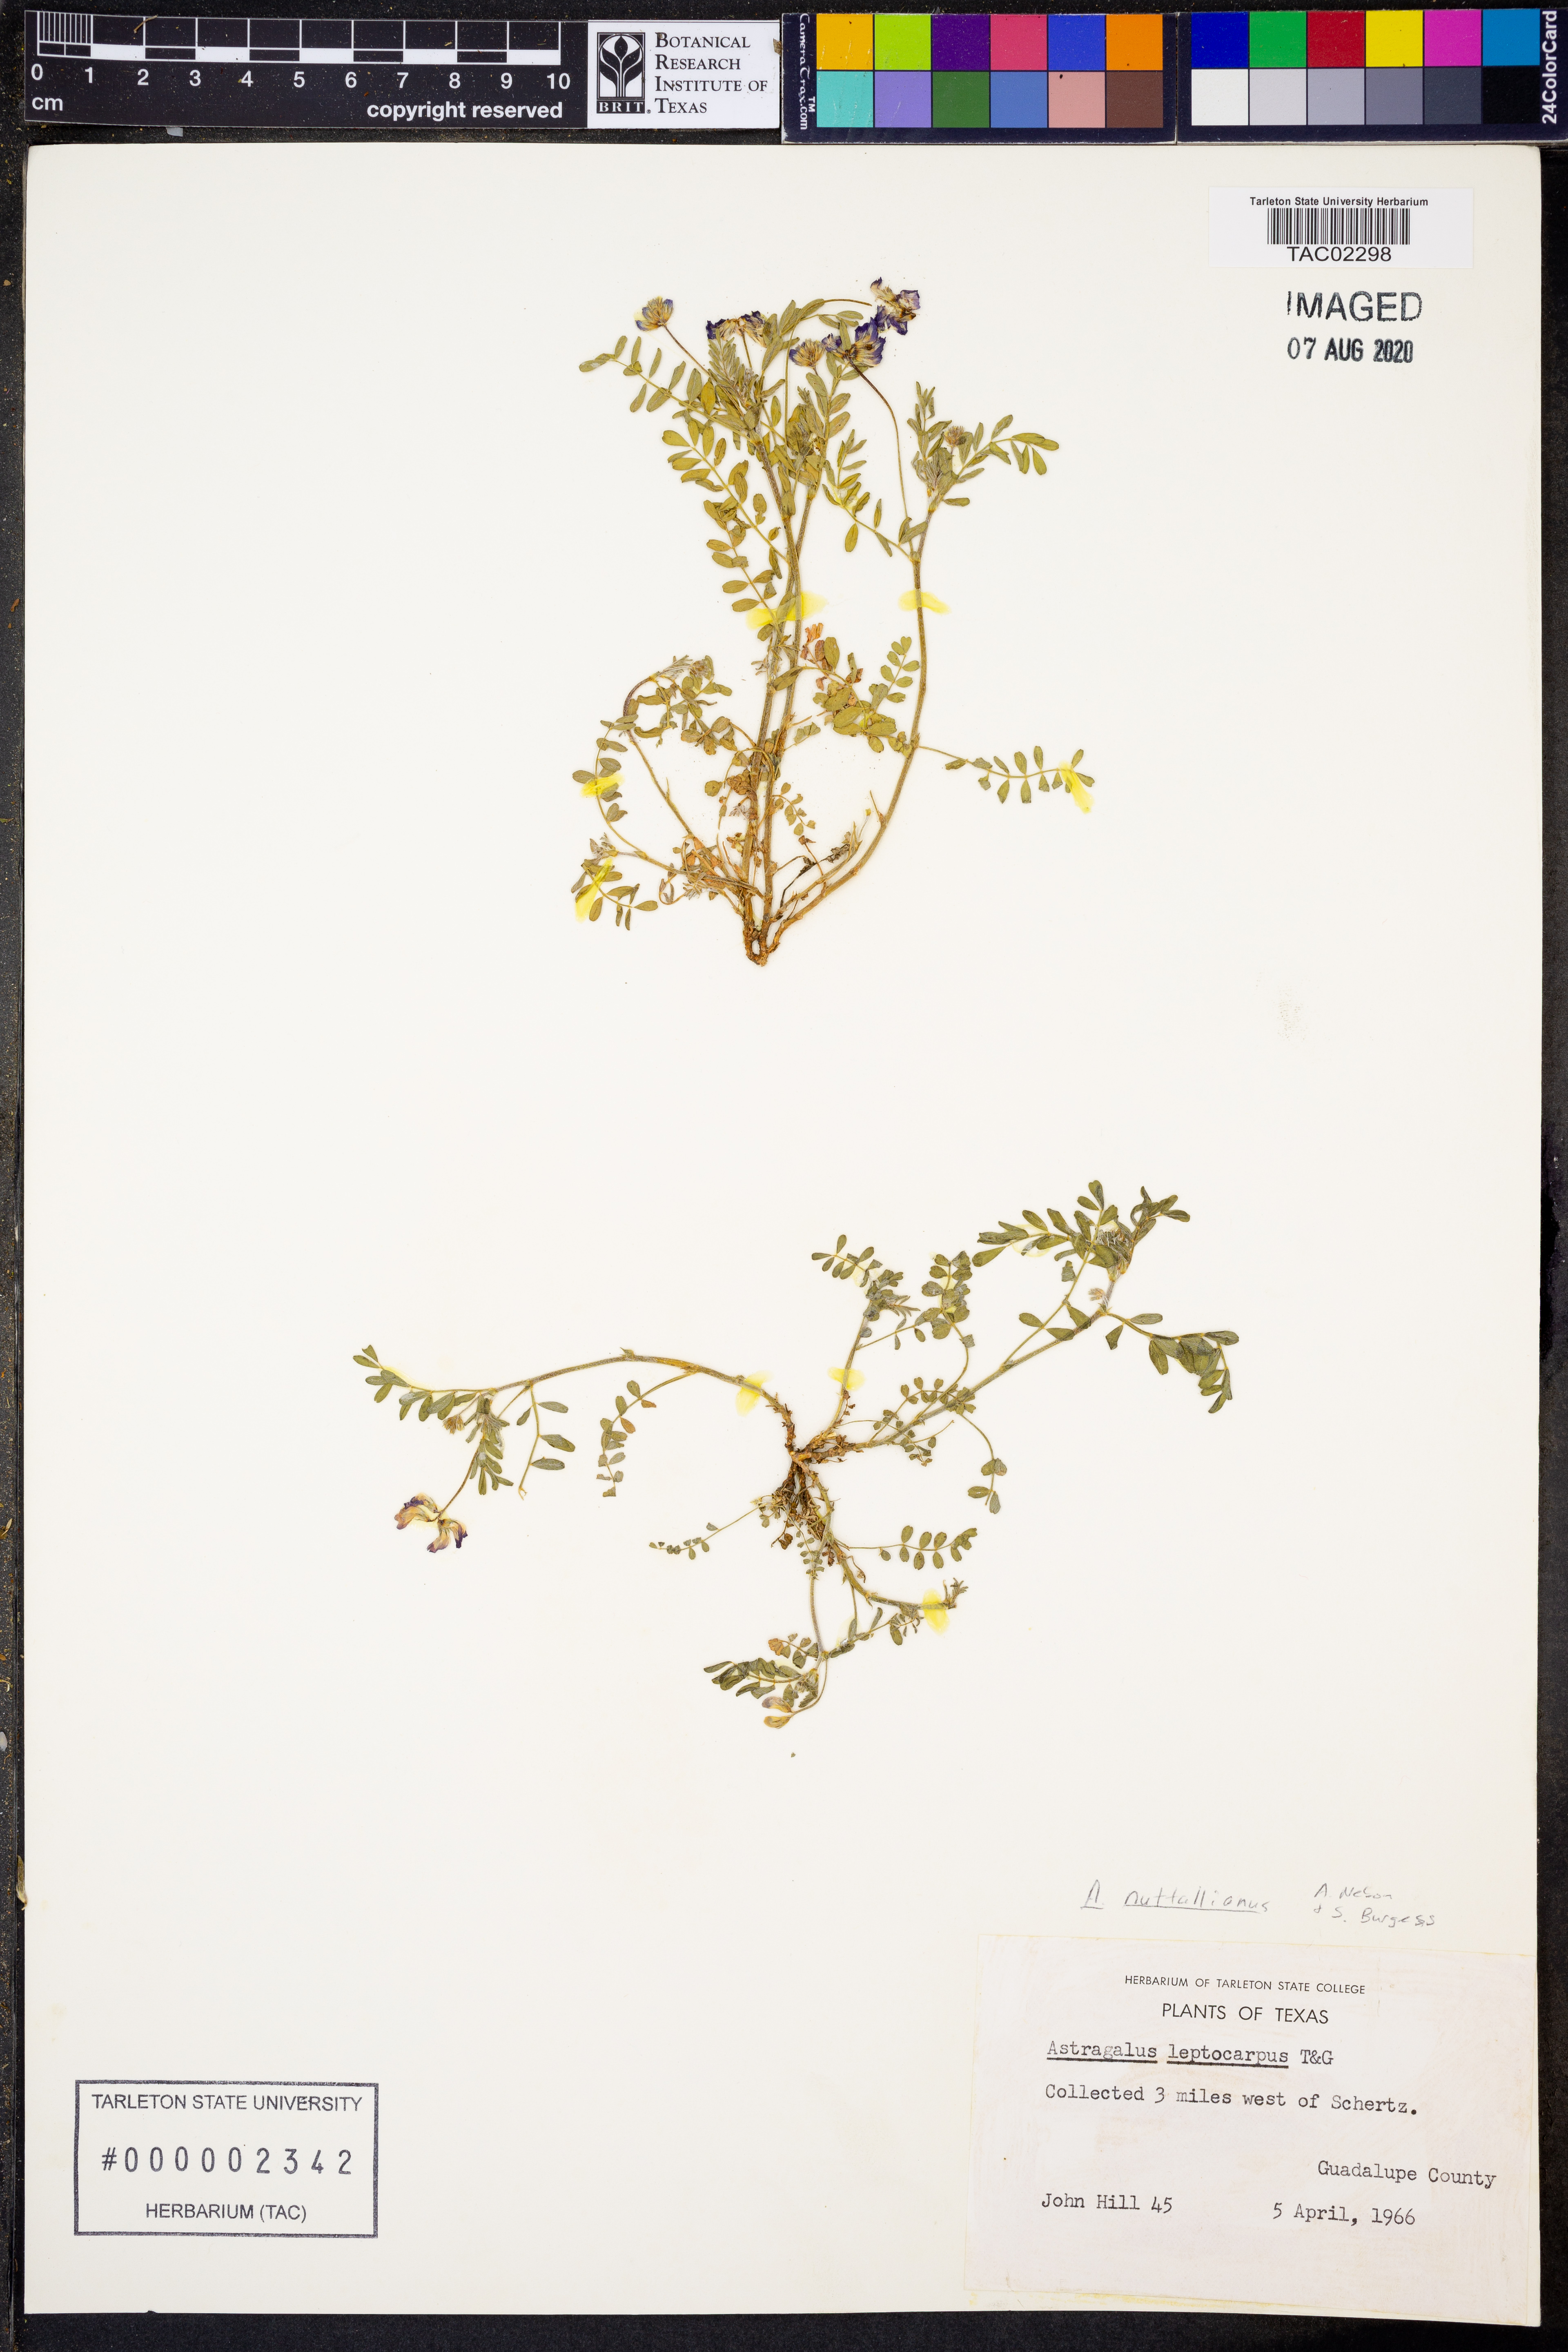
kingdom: Plantae
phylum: Tracheophyta
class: Magnoliopsida
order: Fabales
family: Fabaceae
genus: Astragalus
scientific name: Astragalus nuttallianus
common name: Smallflowered milkvetch
